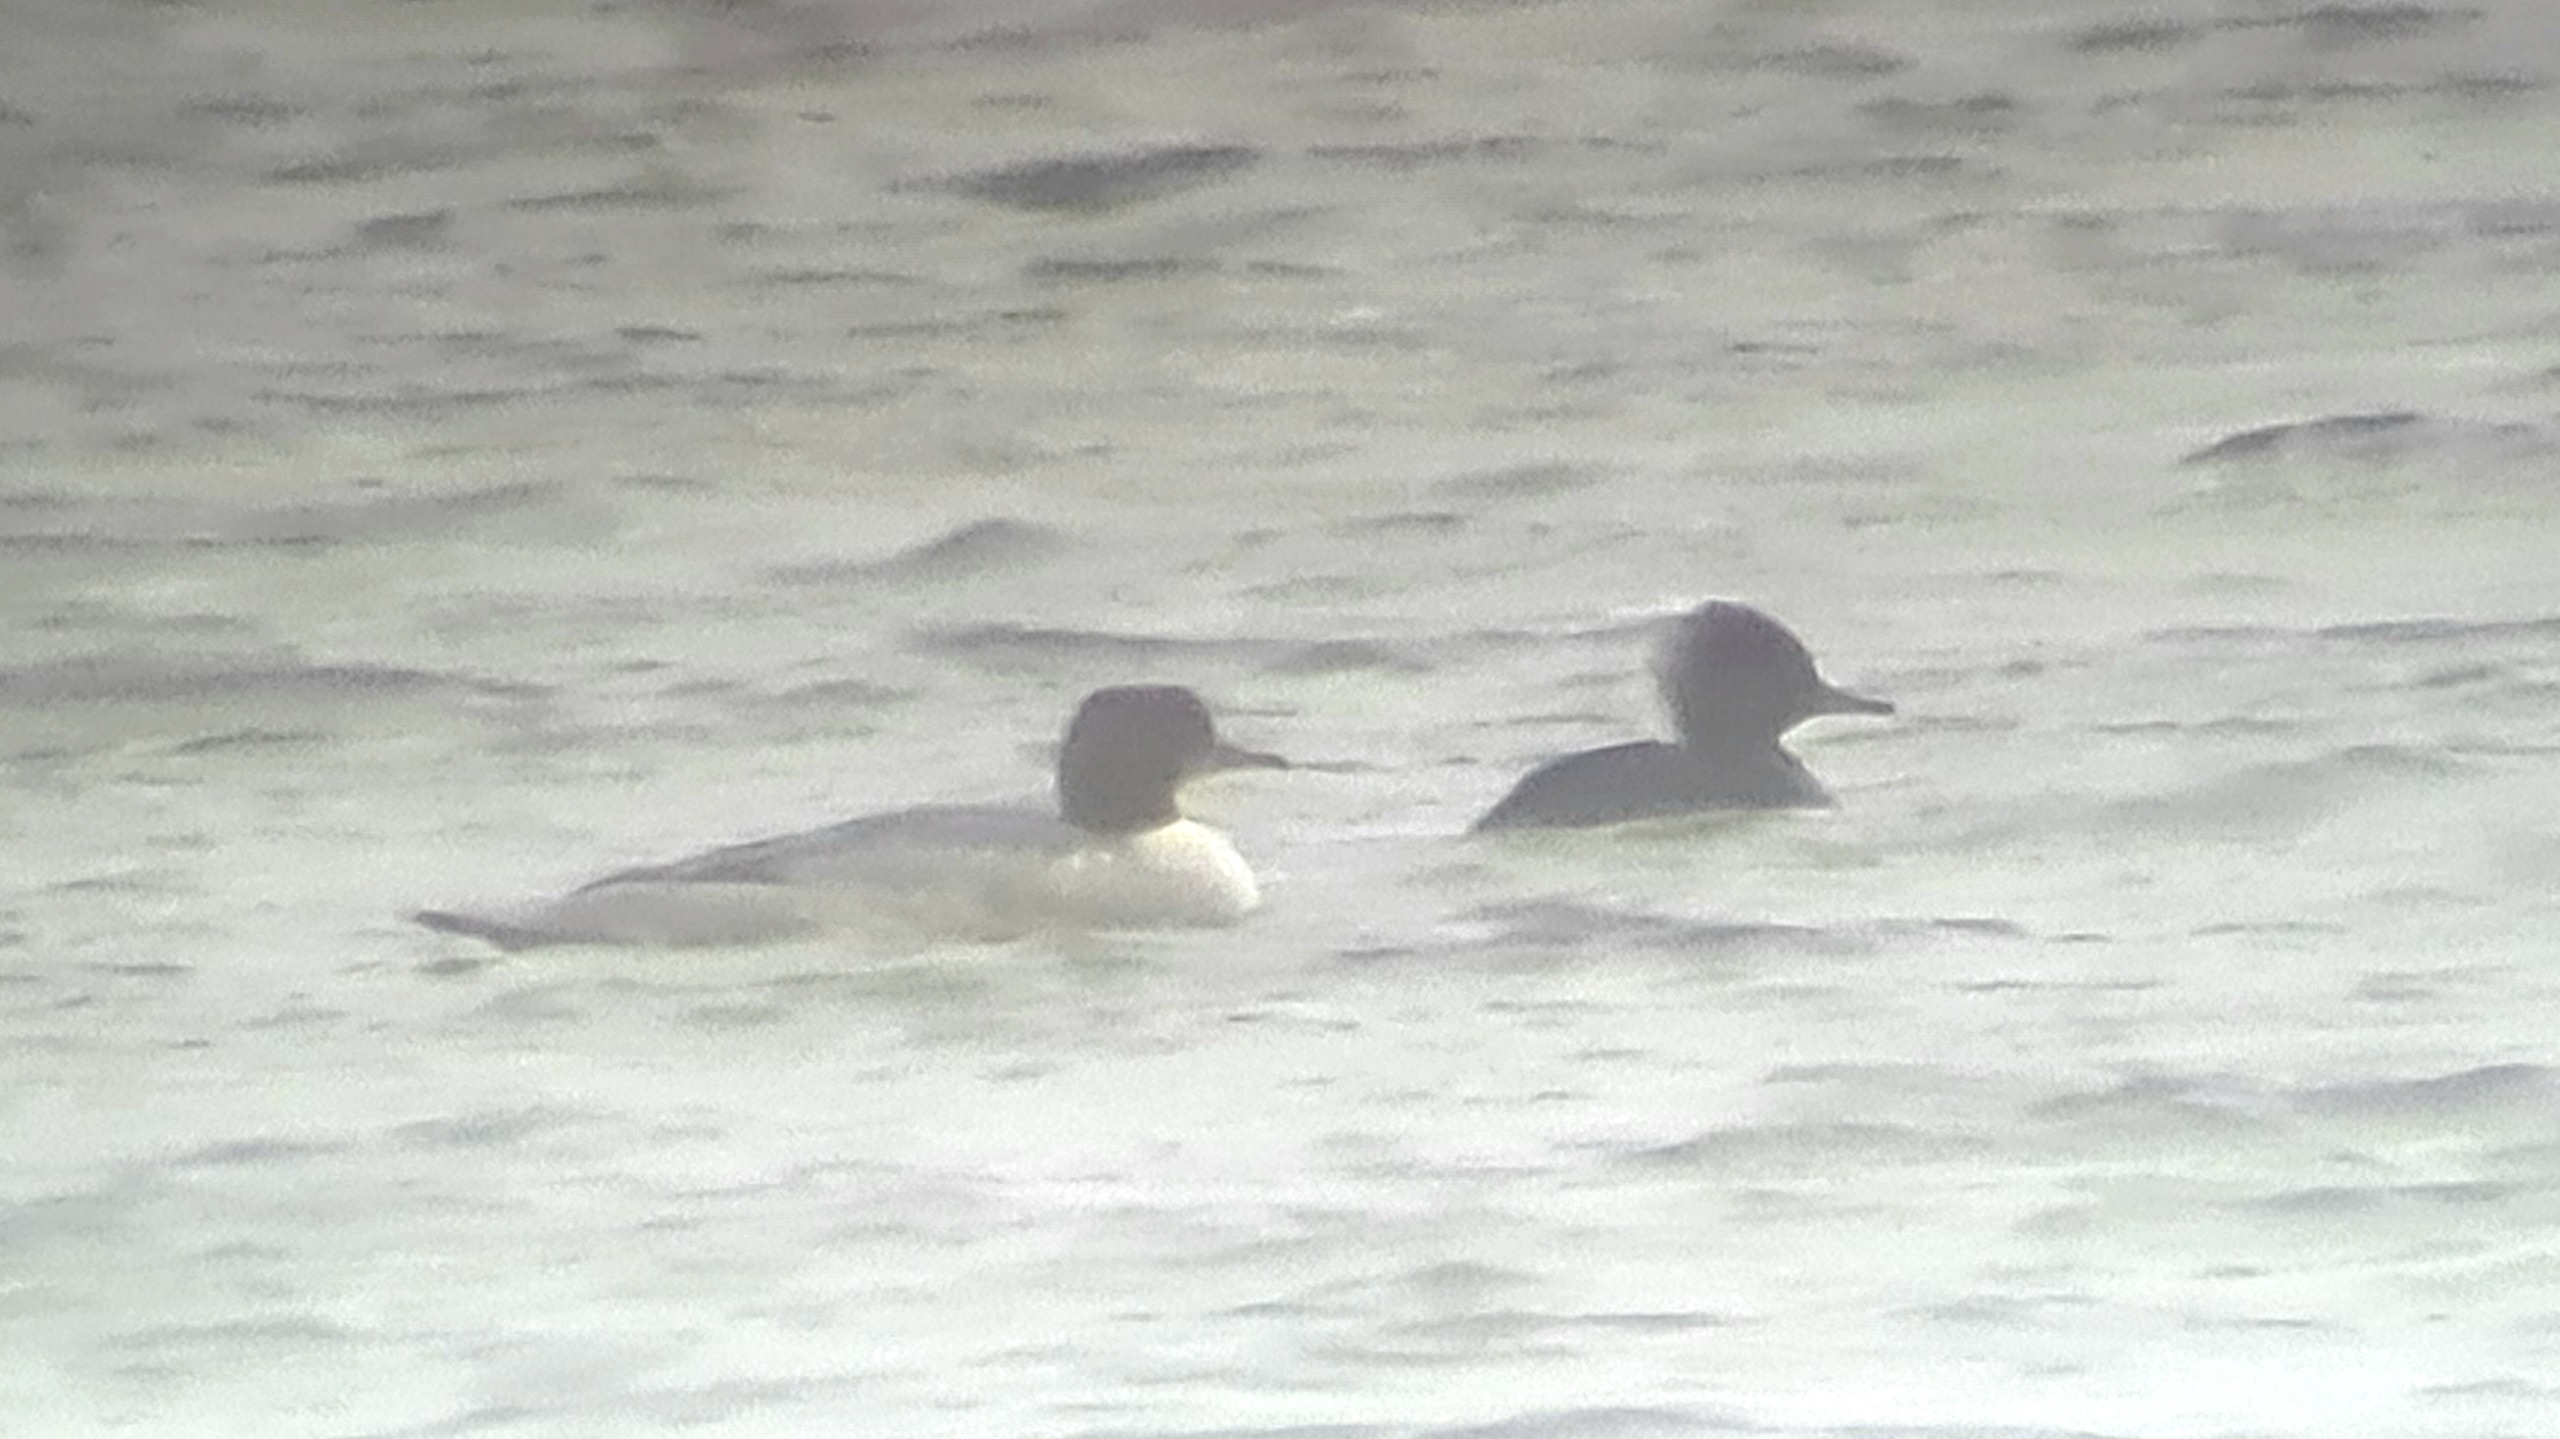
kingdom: Animalia
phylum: Chordata
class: Aves
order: Anseriformes
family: Anatidae
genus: Lophodytes
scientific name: Lophodytes cucullatus
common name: Hjelmskallesluger
